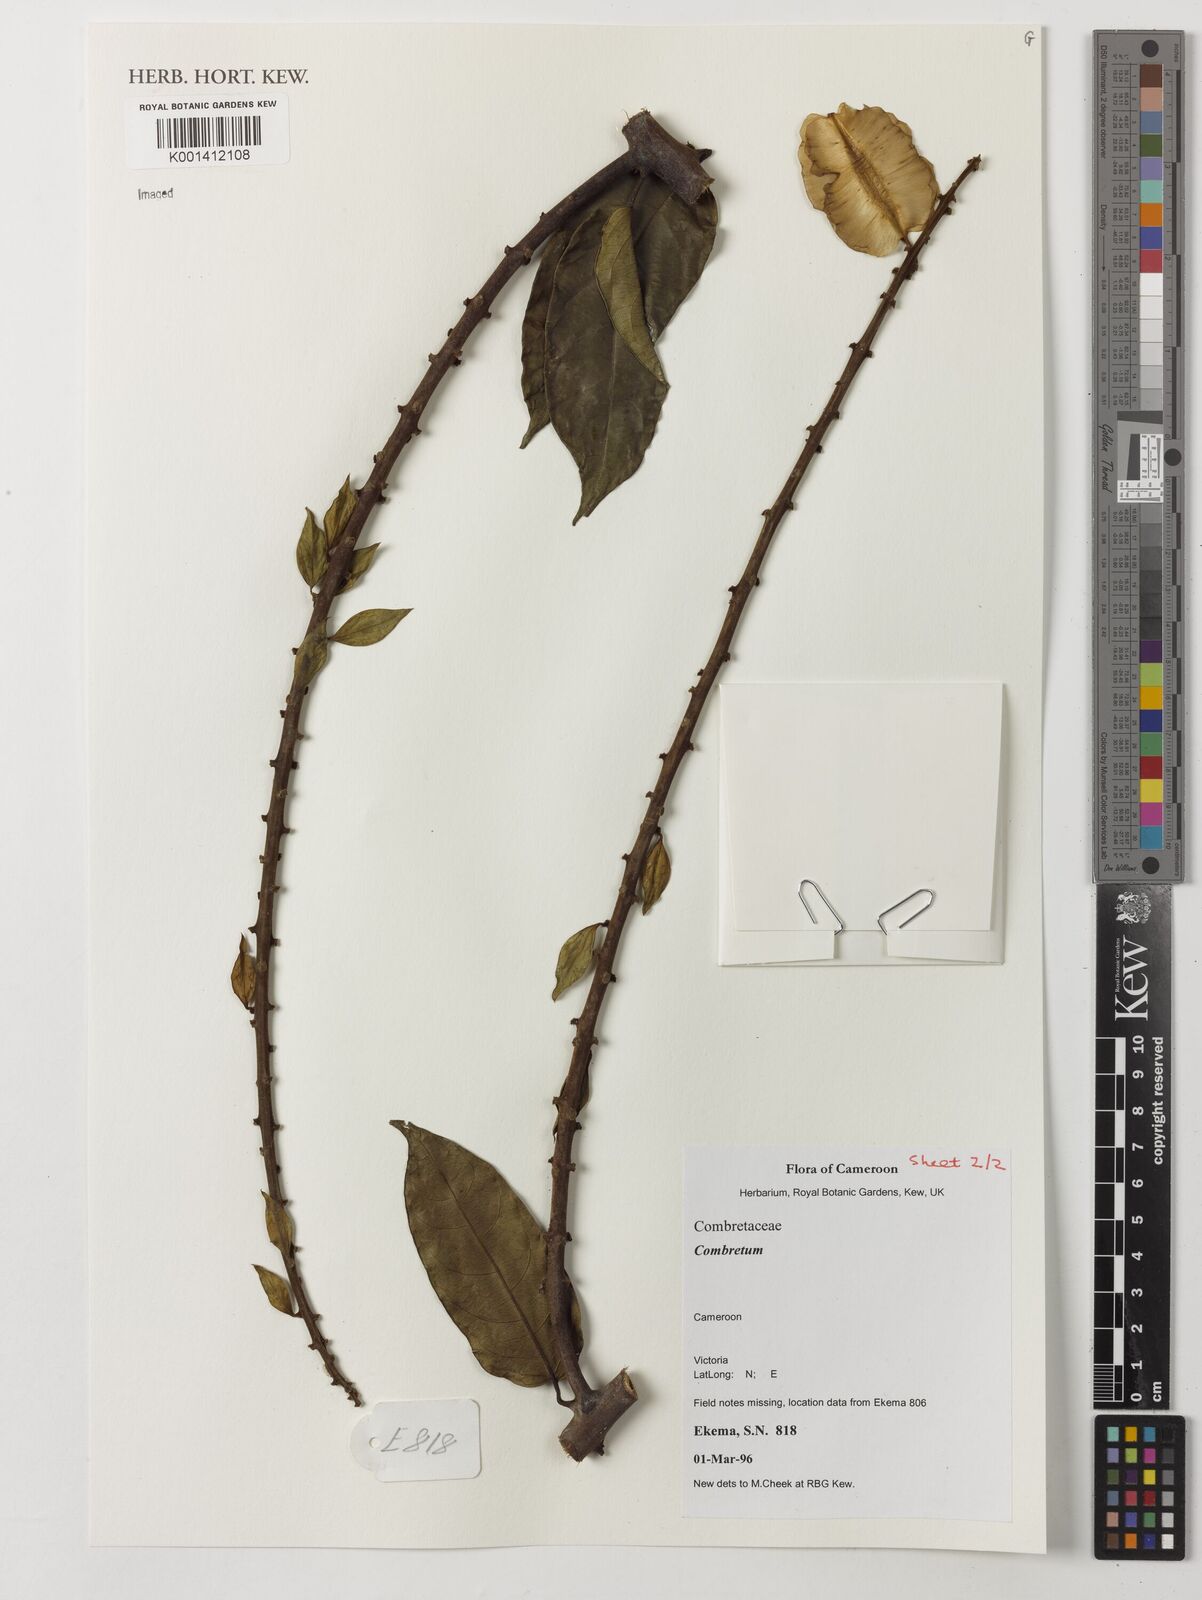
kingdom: Plantae
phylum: Tracheophyta
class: Magnoliopsida
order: Myrtales
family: Combretaceae
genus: Combretum
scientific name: Combretum
